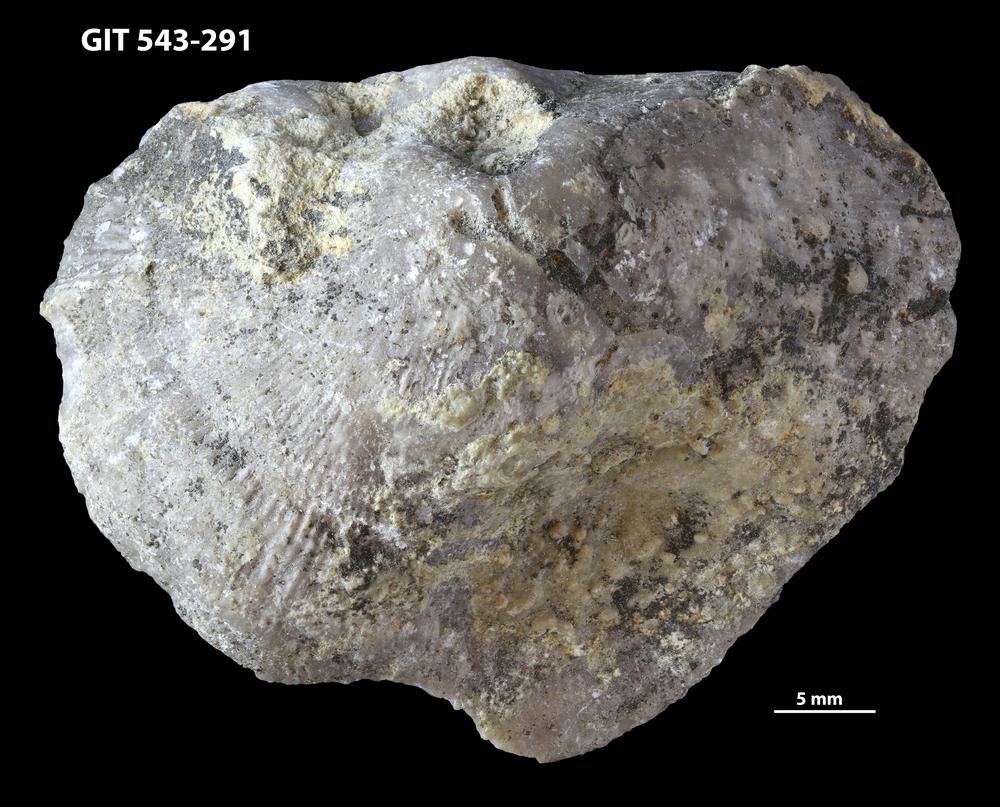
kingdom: Animalia
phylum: Brachiopoda
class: Rhynchonellata
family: Clitambonitidae
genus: Ilmarinia
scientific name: Ilmarinia dimorpha
